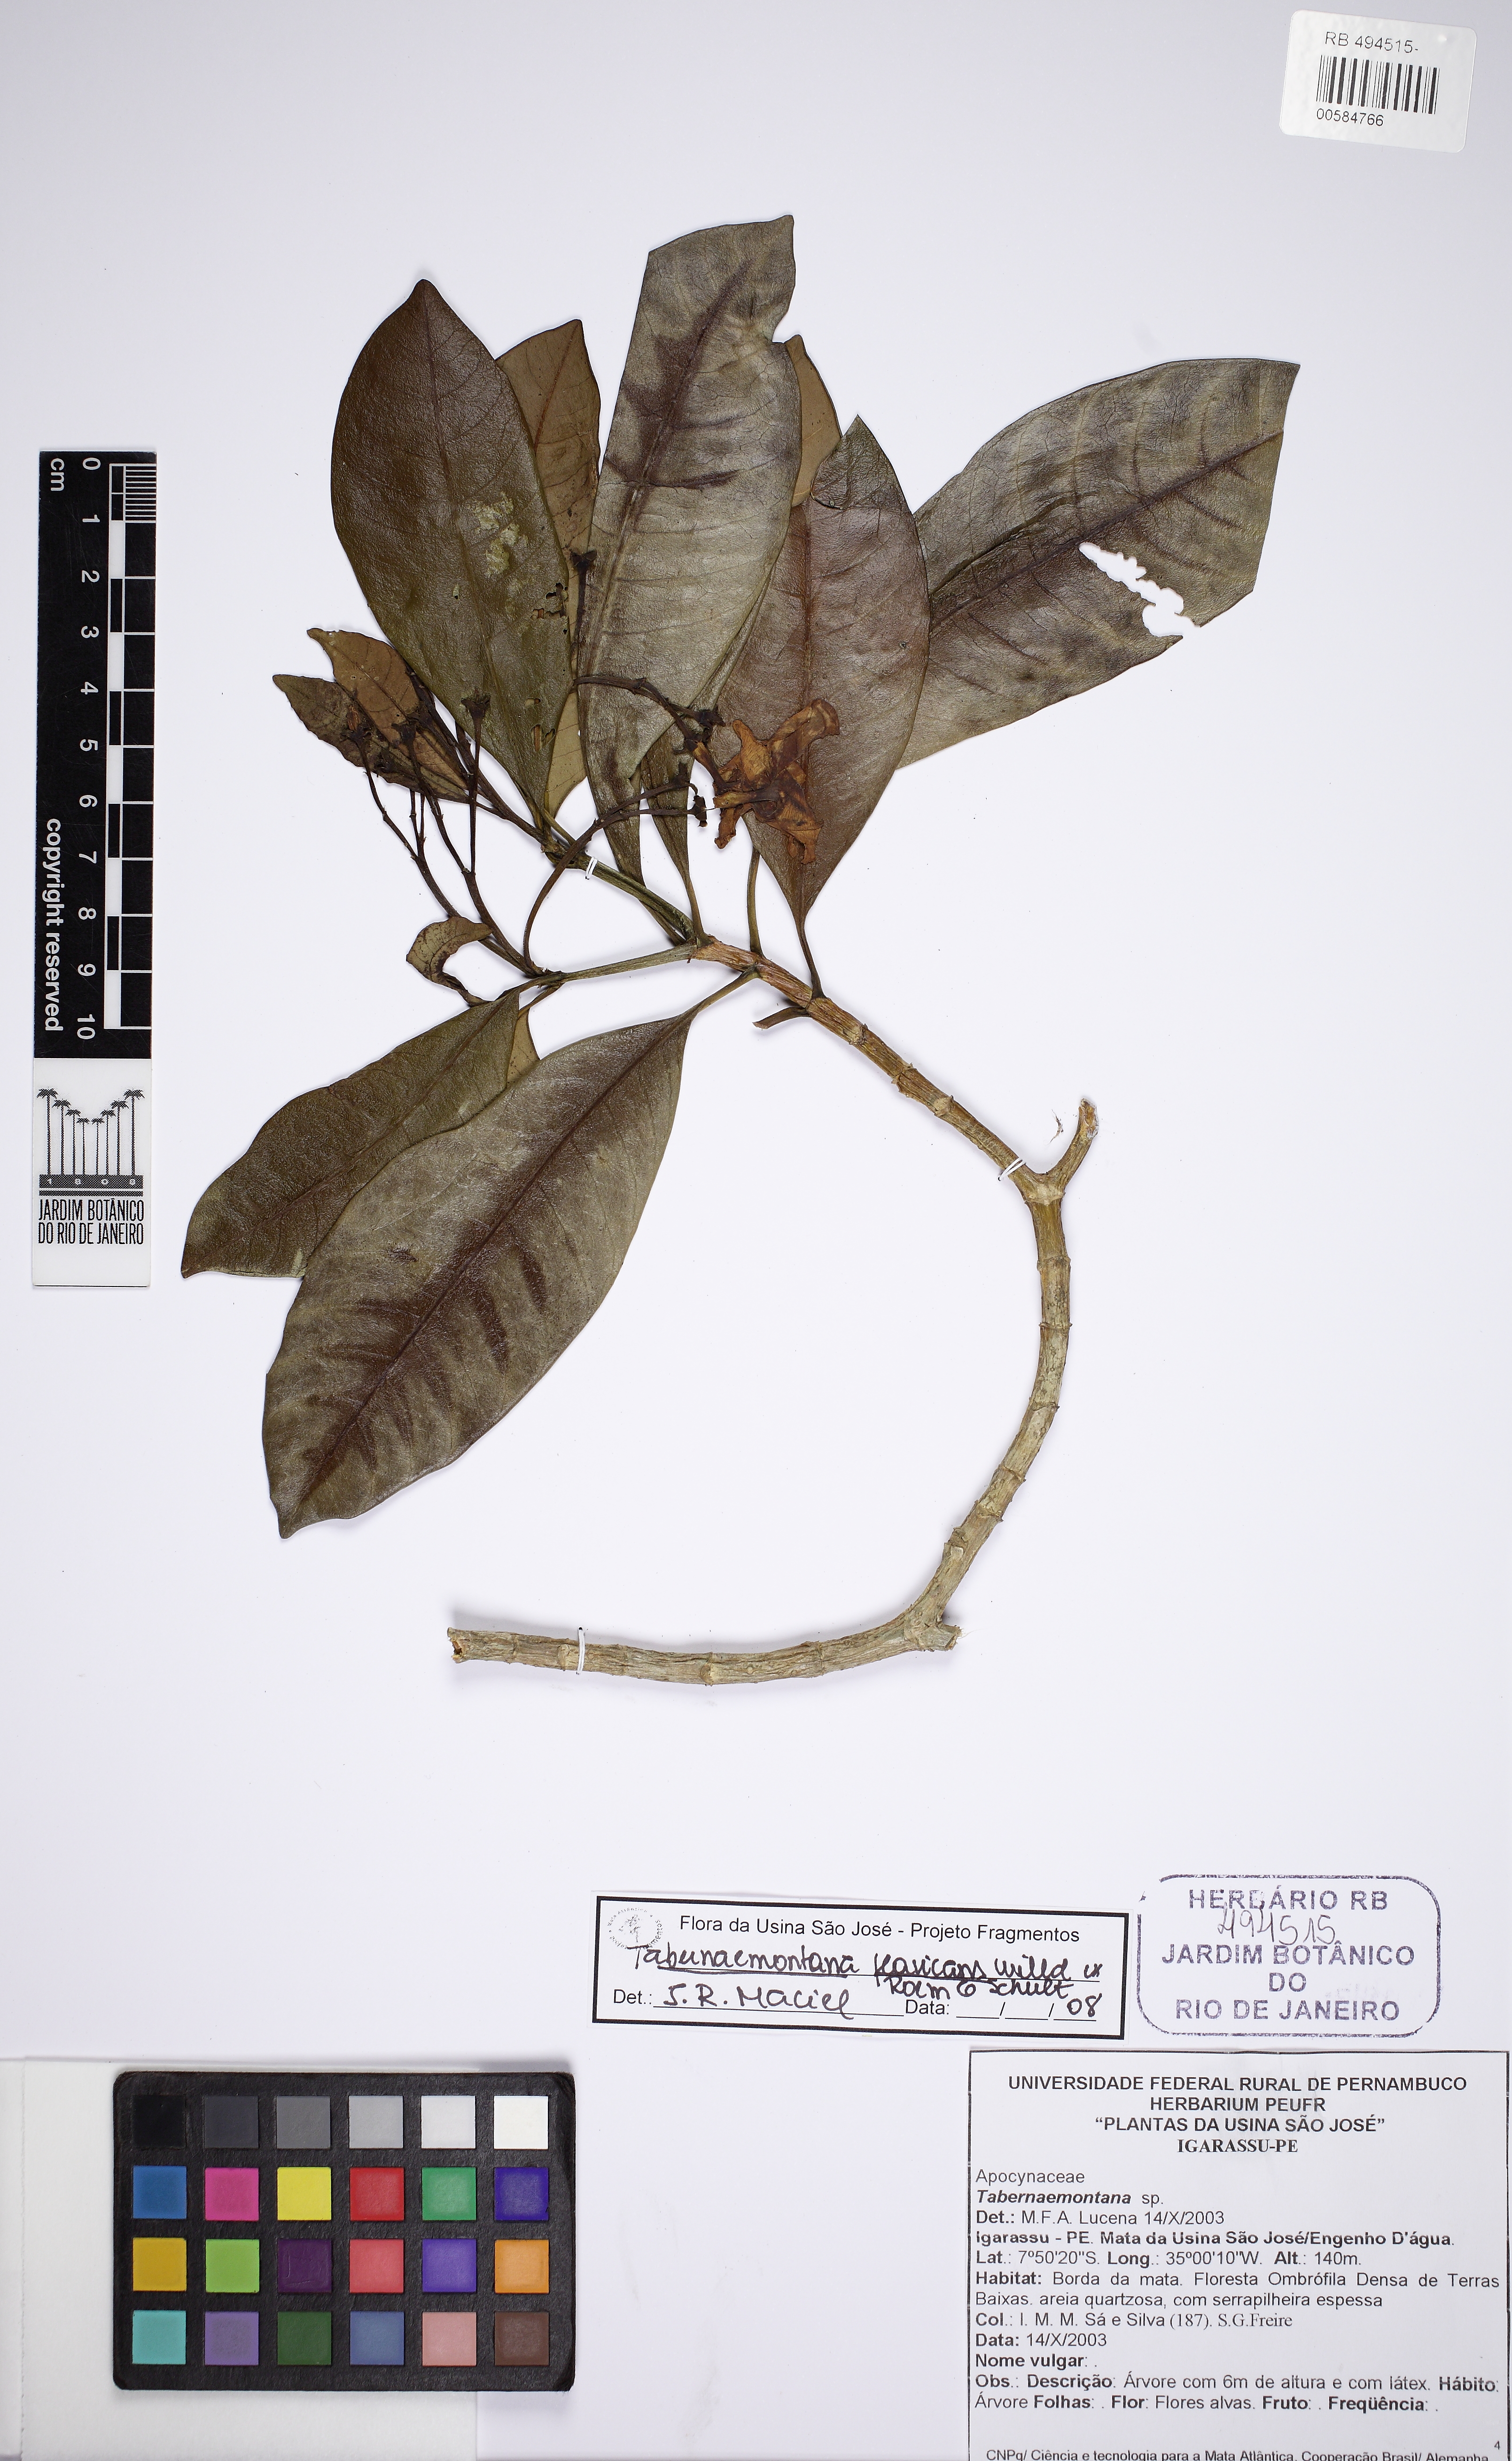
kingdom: Plantae
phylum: Tracheophyta
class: Magnoliopsida
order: Gentianales
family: Apocynaceae
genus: Tabernaemontana
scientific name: Tabernaemontana salzmannii
